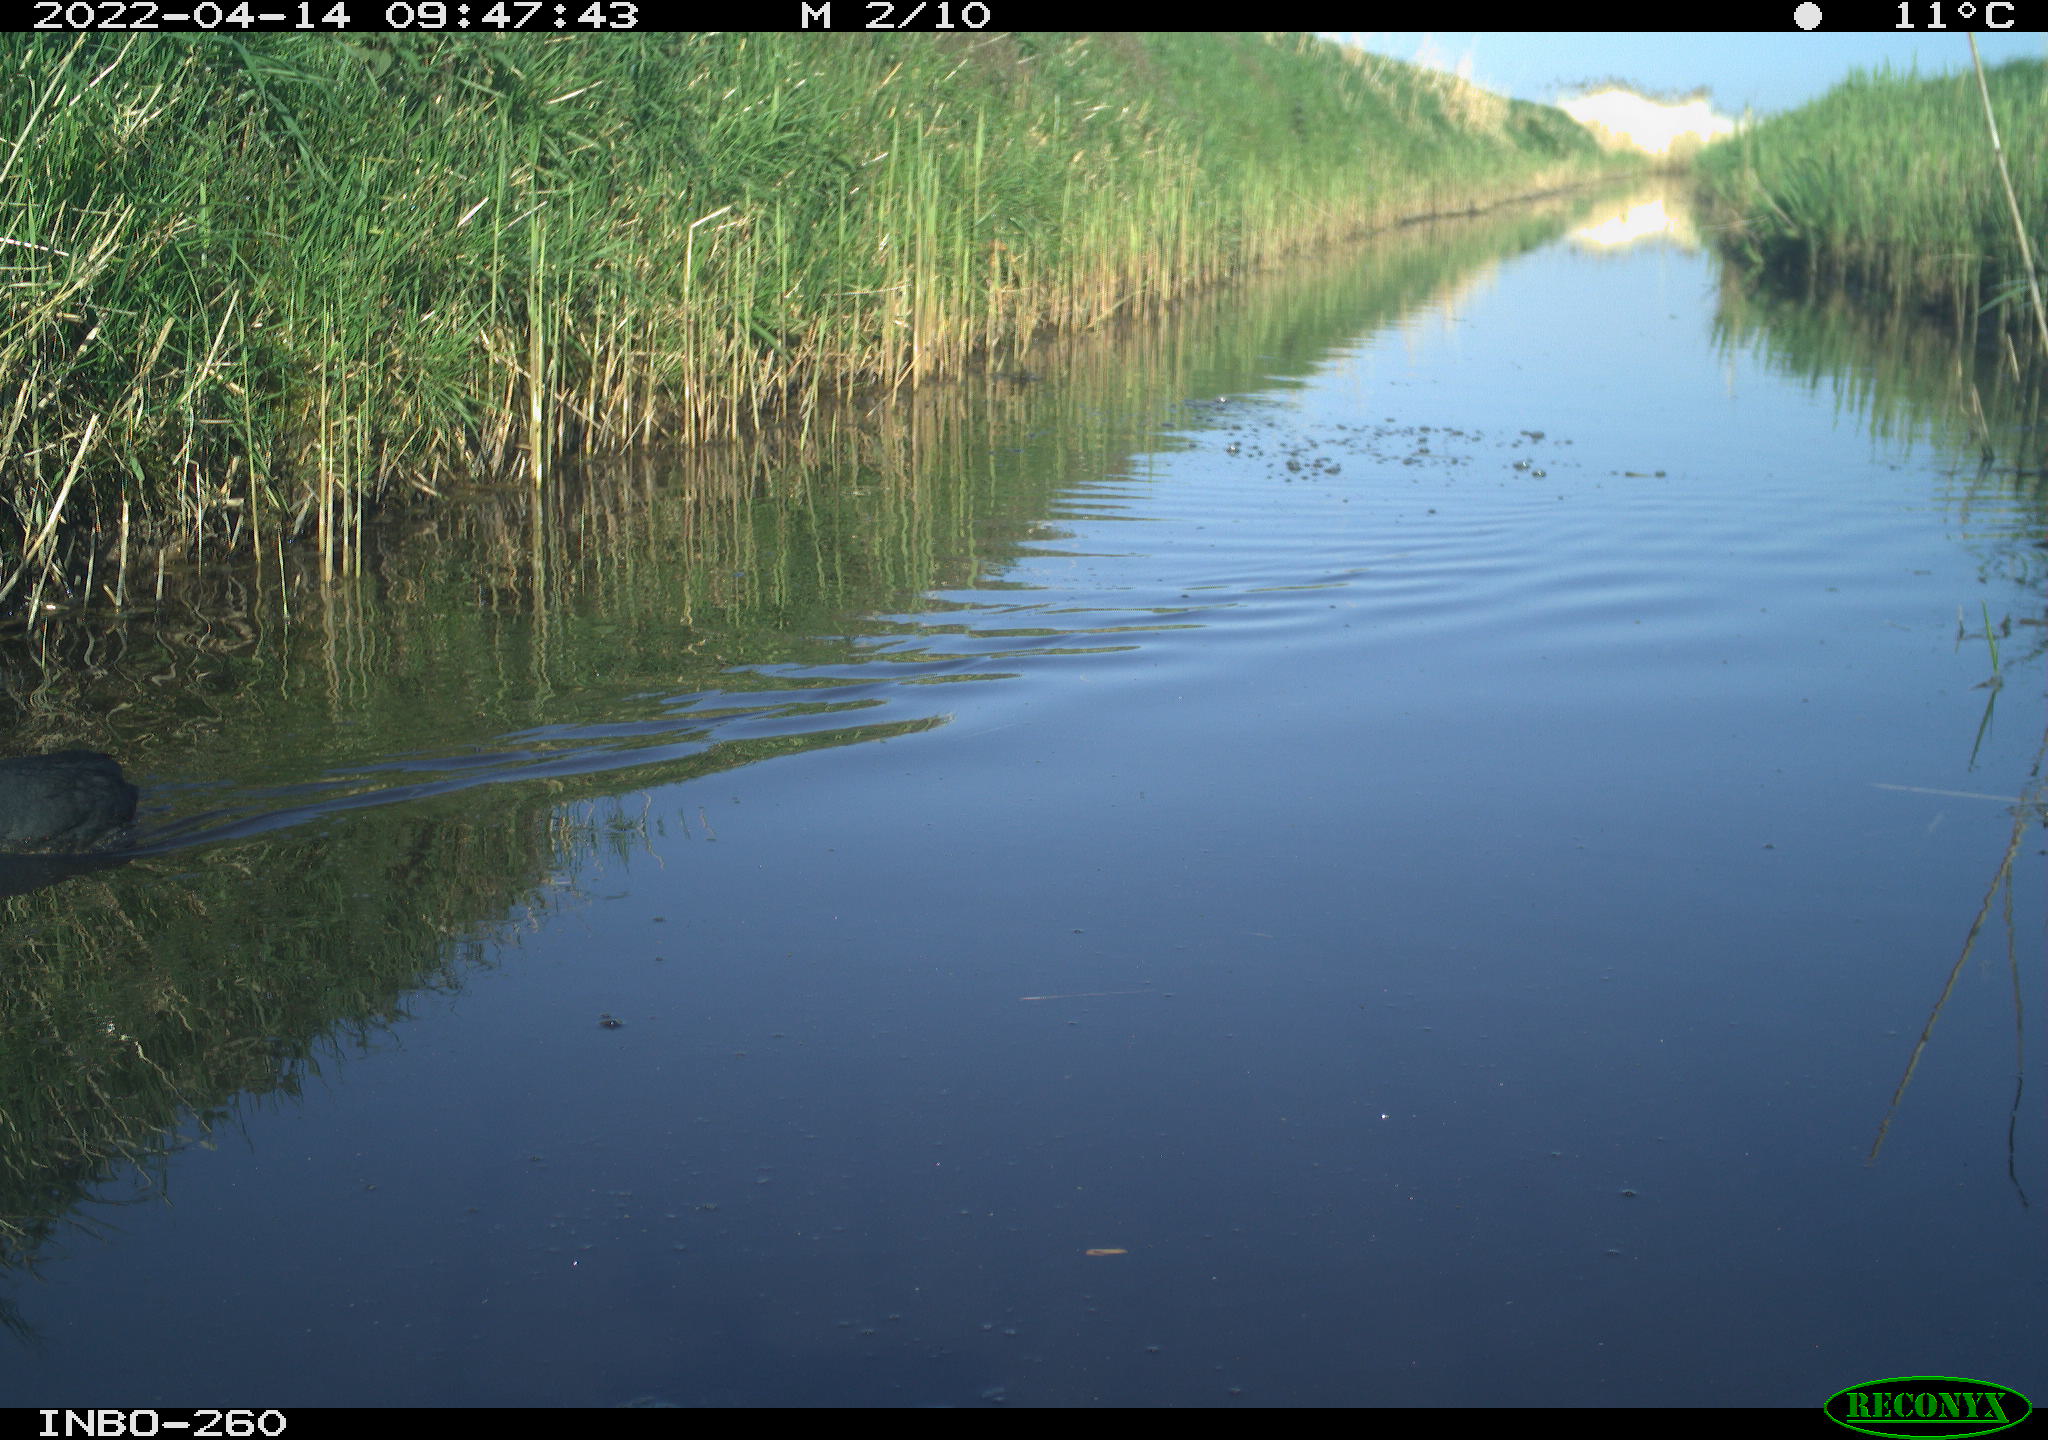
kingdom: Animalia
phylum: Chordata
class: Aves
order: Gruiformes
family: Rallidae
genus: Fulica
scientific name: Fulica atra
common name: Eurasian coot
